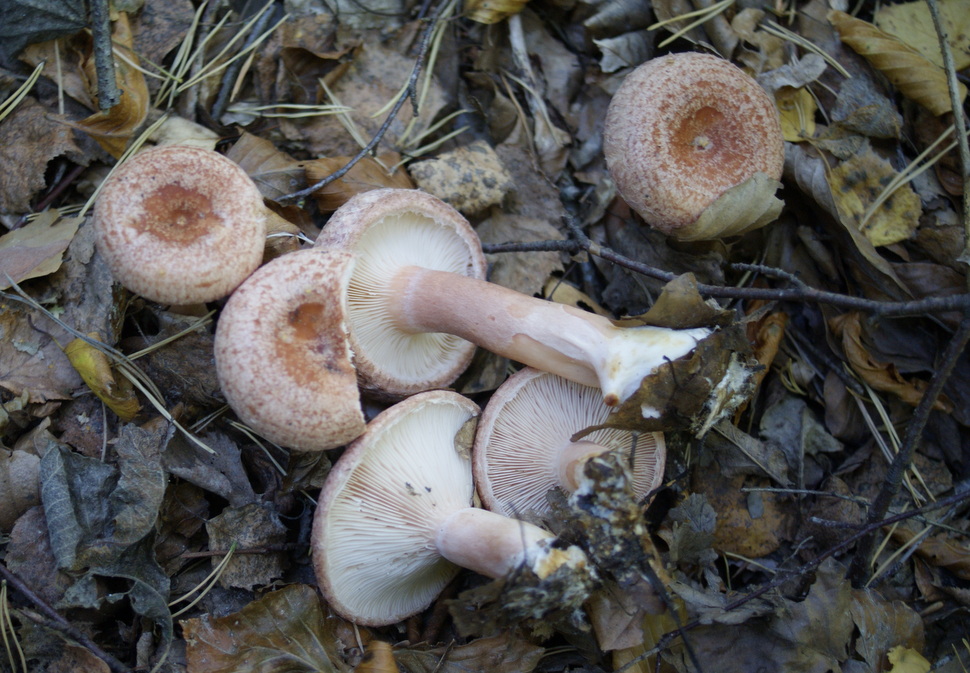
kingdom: Fungi
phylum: Basidiomycota
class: Agaricomycetes
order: Russulales
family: Russulaceae
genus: Lactarius
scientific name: Lactarius torminosus
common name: skægget mælkehat
